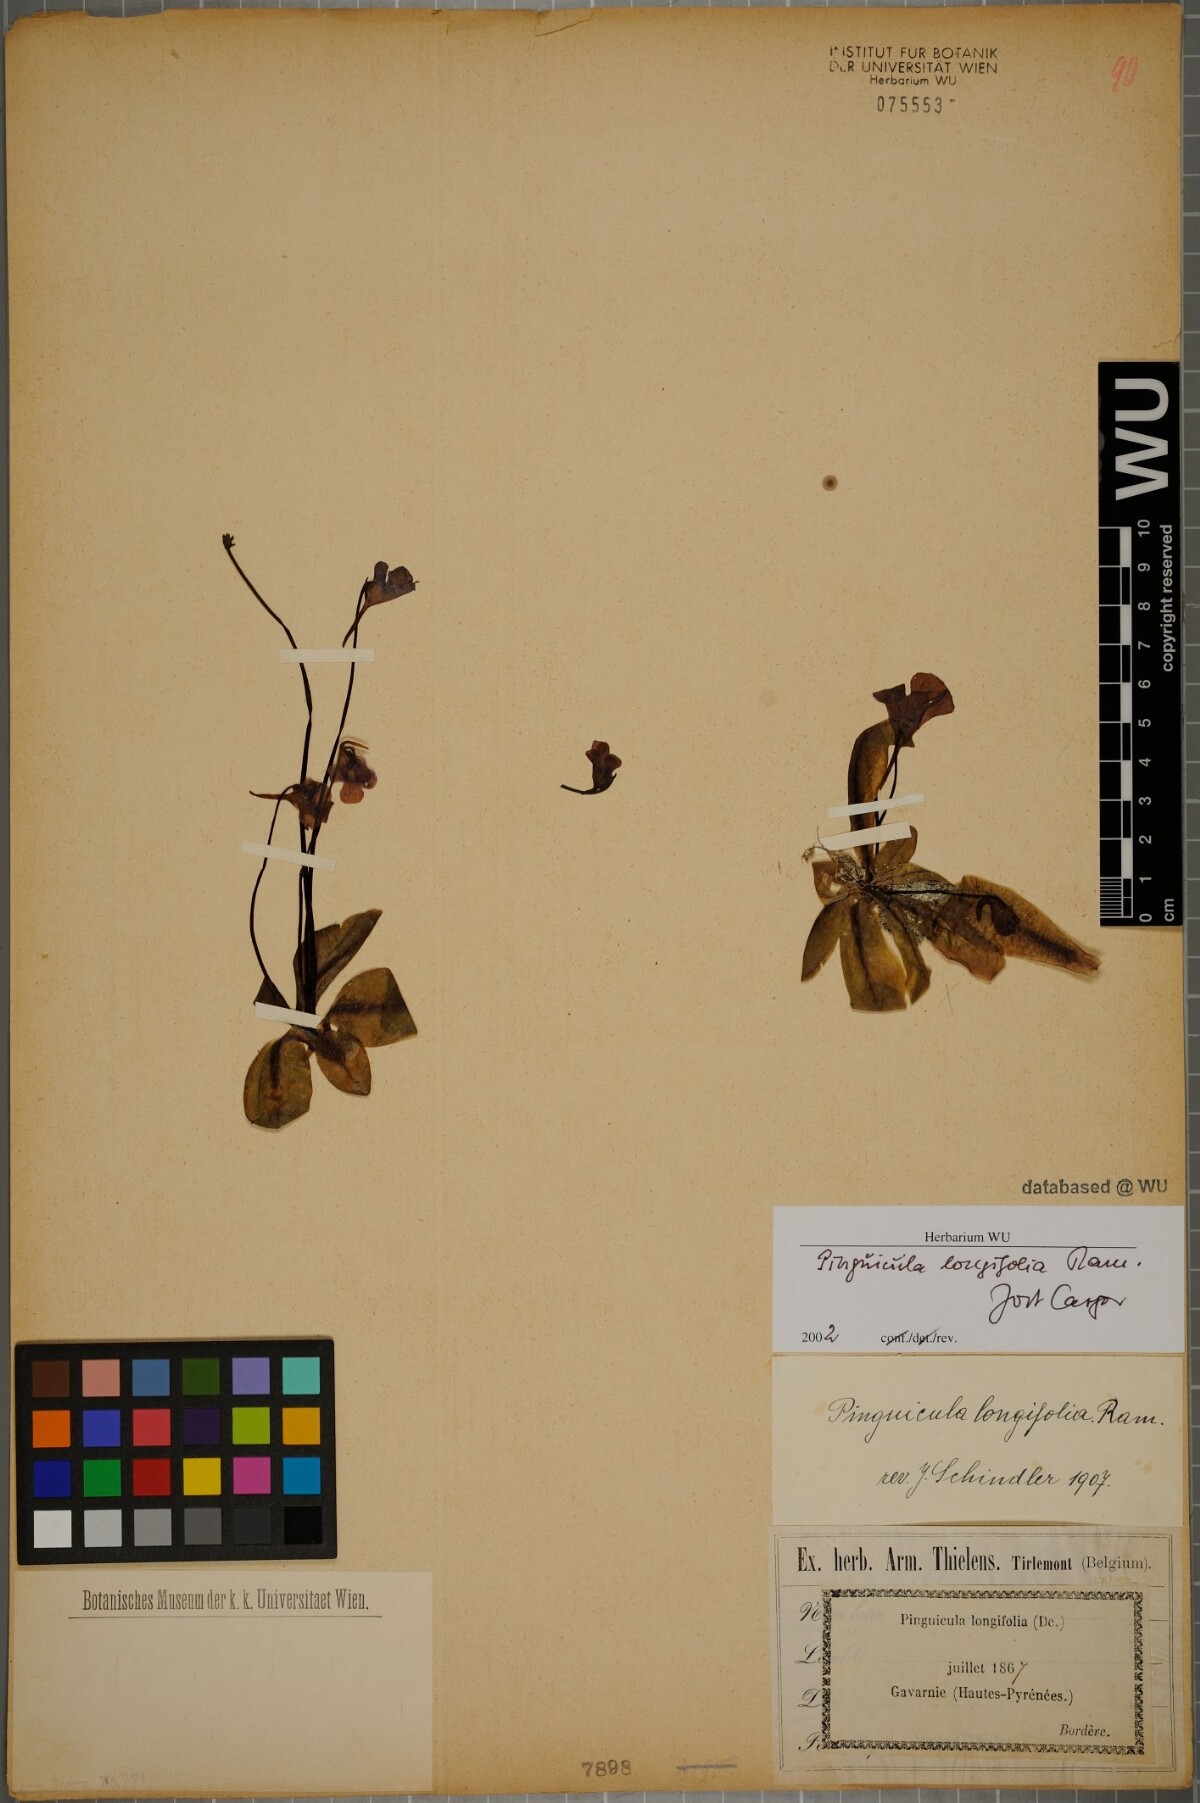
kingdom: Plantae
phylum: Tracheophyta
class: Magnoliopsida
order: Lamiales
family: Lentibulariaceae
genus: Pinguicula
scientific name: Pinguicula longifolia
